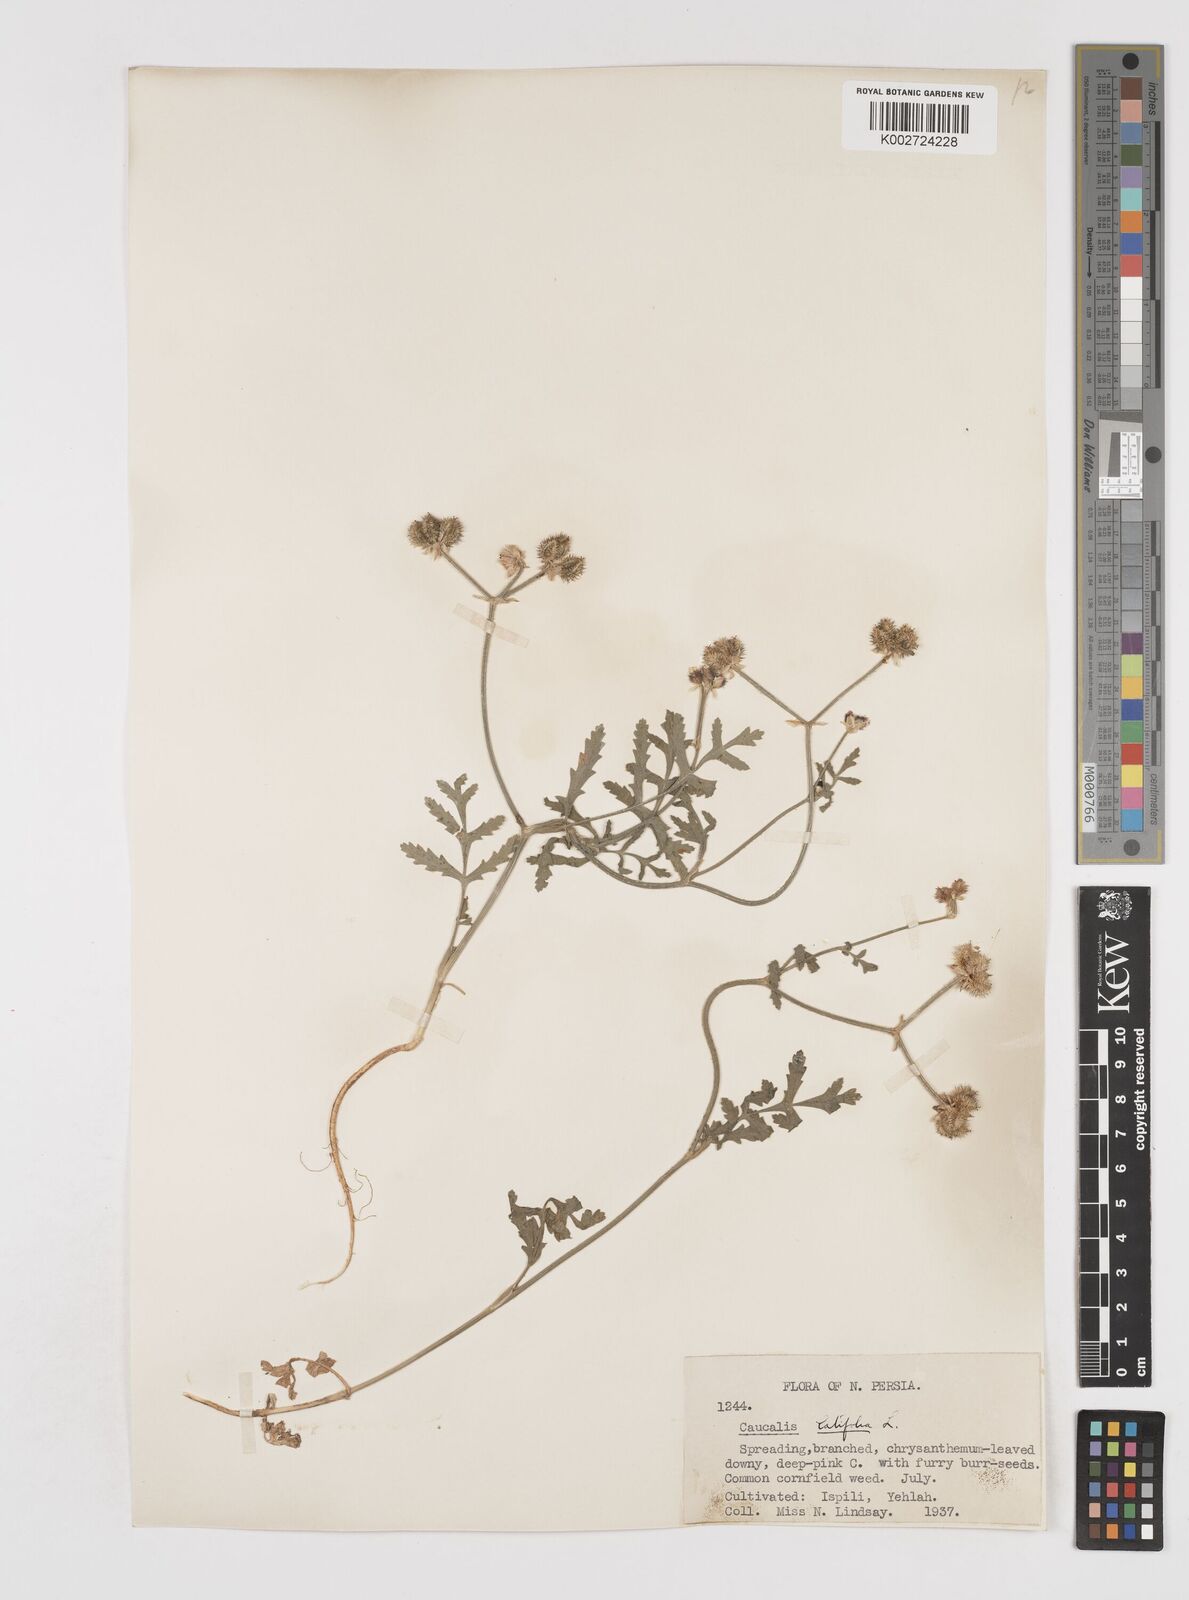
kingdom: Plantae
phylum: Tracheophyta
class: Magnoliopsida
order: Apiales
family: Apiaceae
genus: Turgenia
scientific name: Turgenia latifolia
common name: Greater bur-parsley
